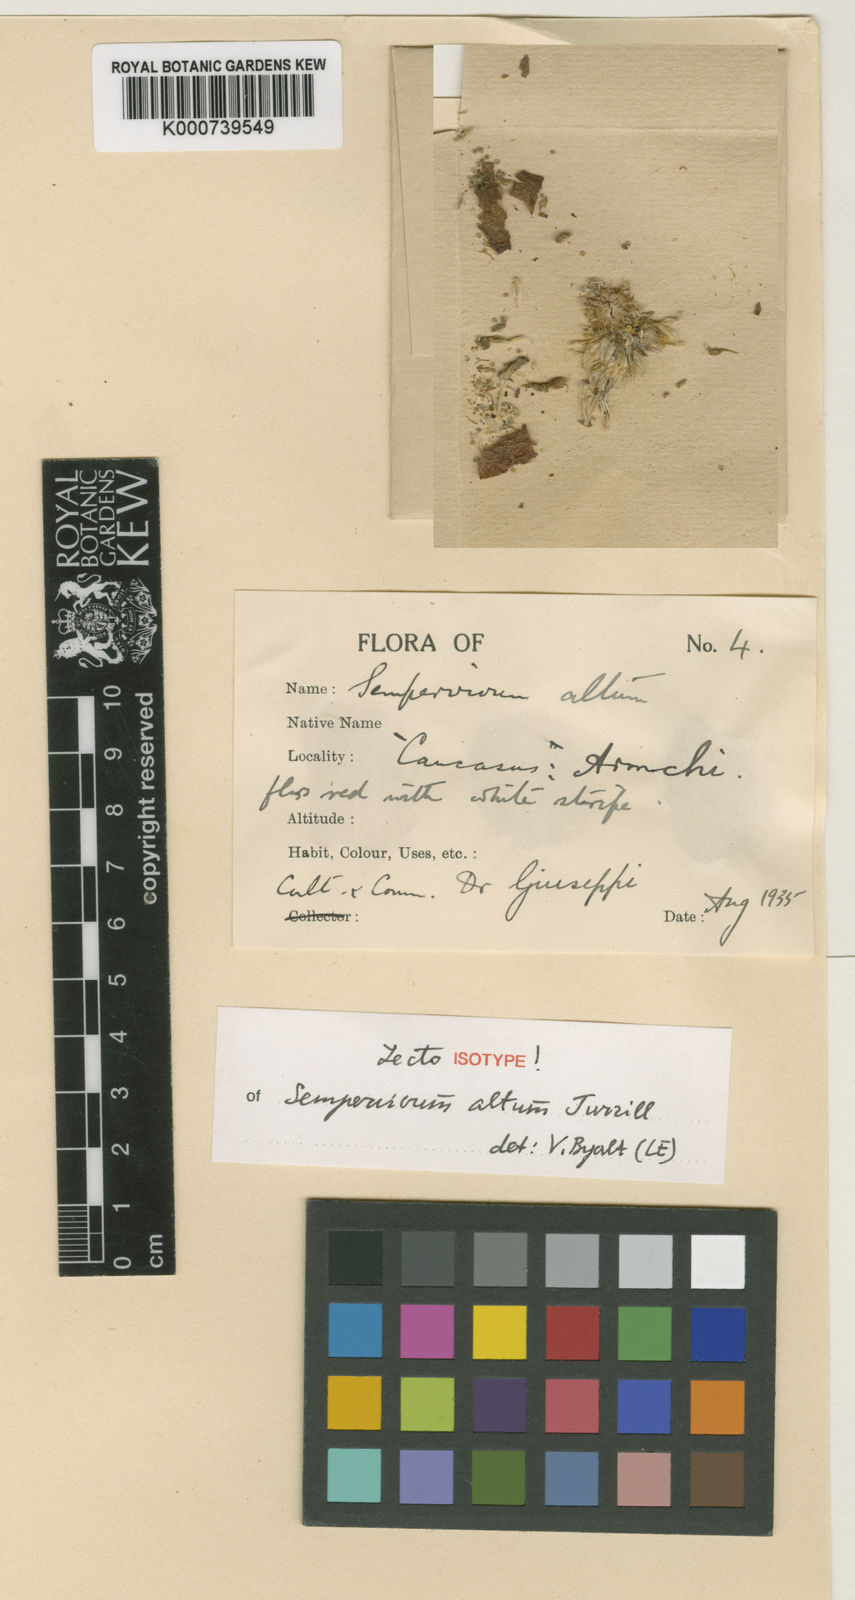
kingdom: Plantae
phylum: Tracheophyta
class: Magnoliopsida
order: Saxifragales
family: Crassulaceae
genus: Sempervivum
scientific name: Sempervivum altum
